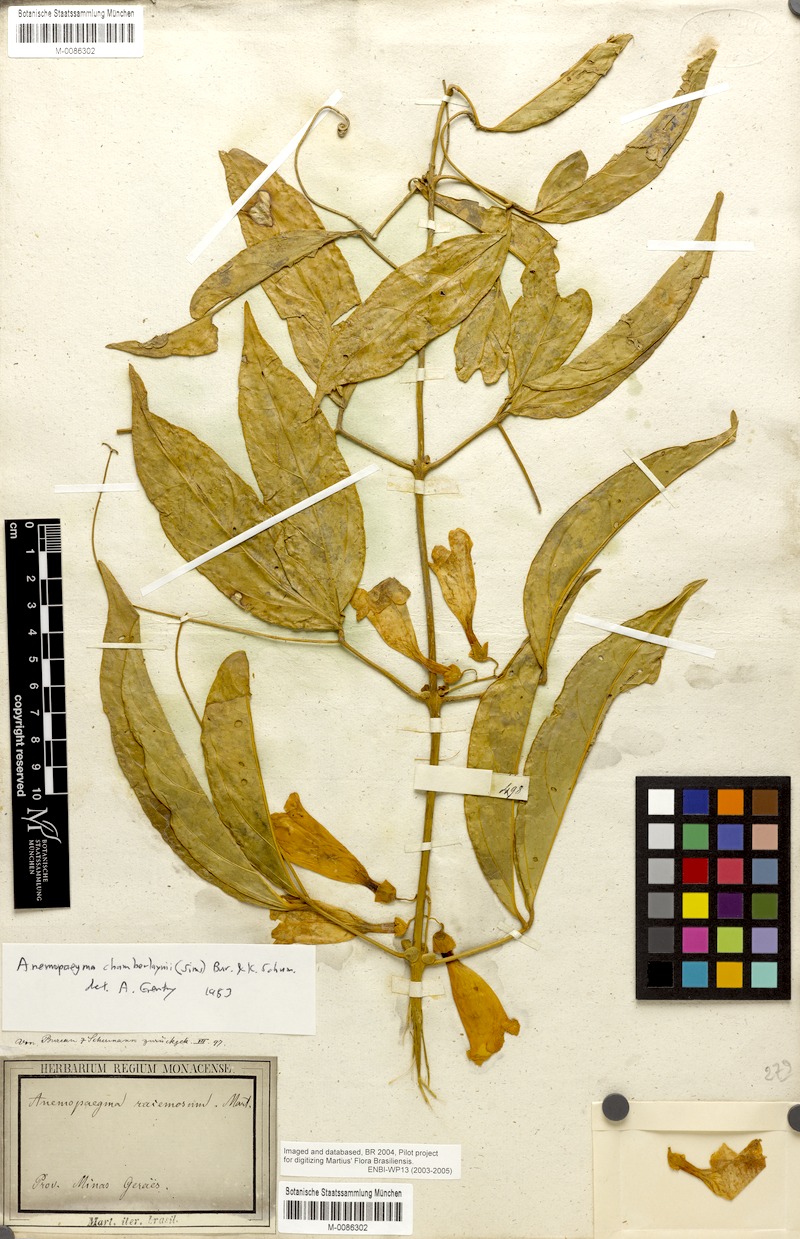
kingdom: Plantae
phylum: Tracheophyta
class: Magnoliopsida
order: Lamiales
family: Bignoniaceae
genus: Anemopaegma
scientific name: Anemopaegma chamberlaynii
